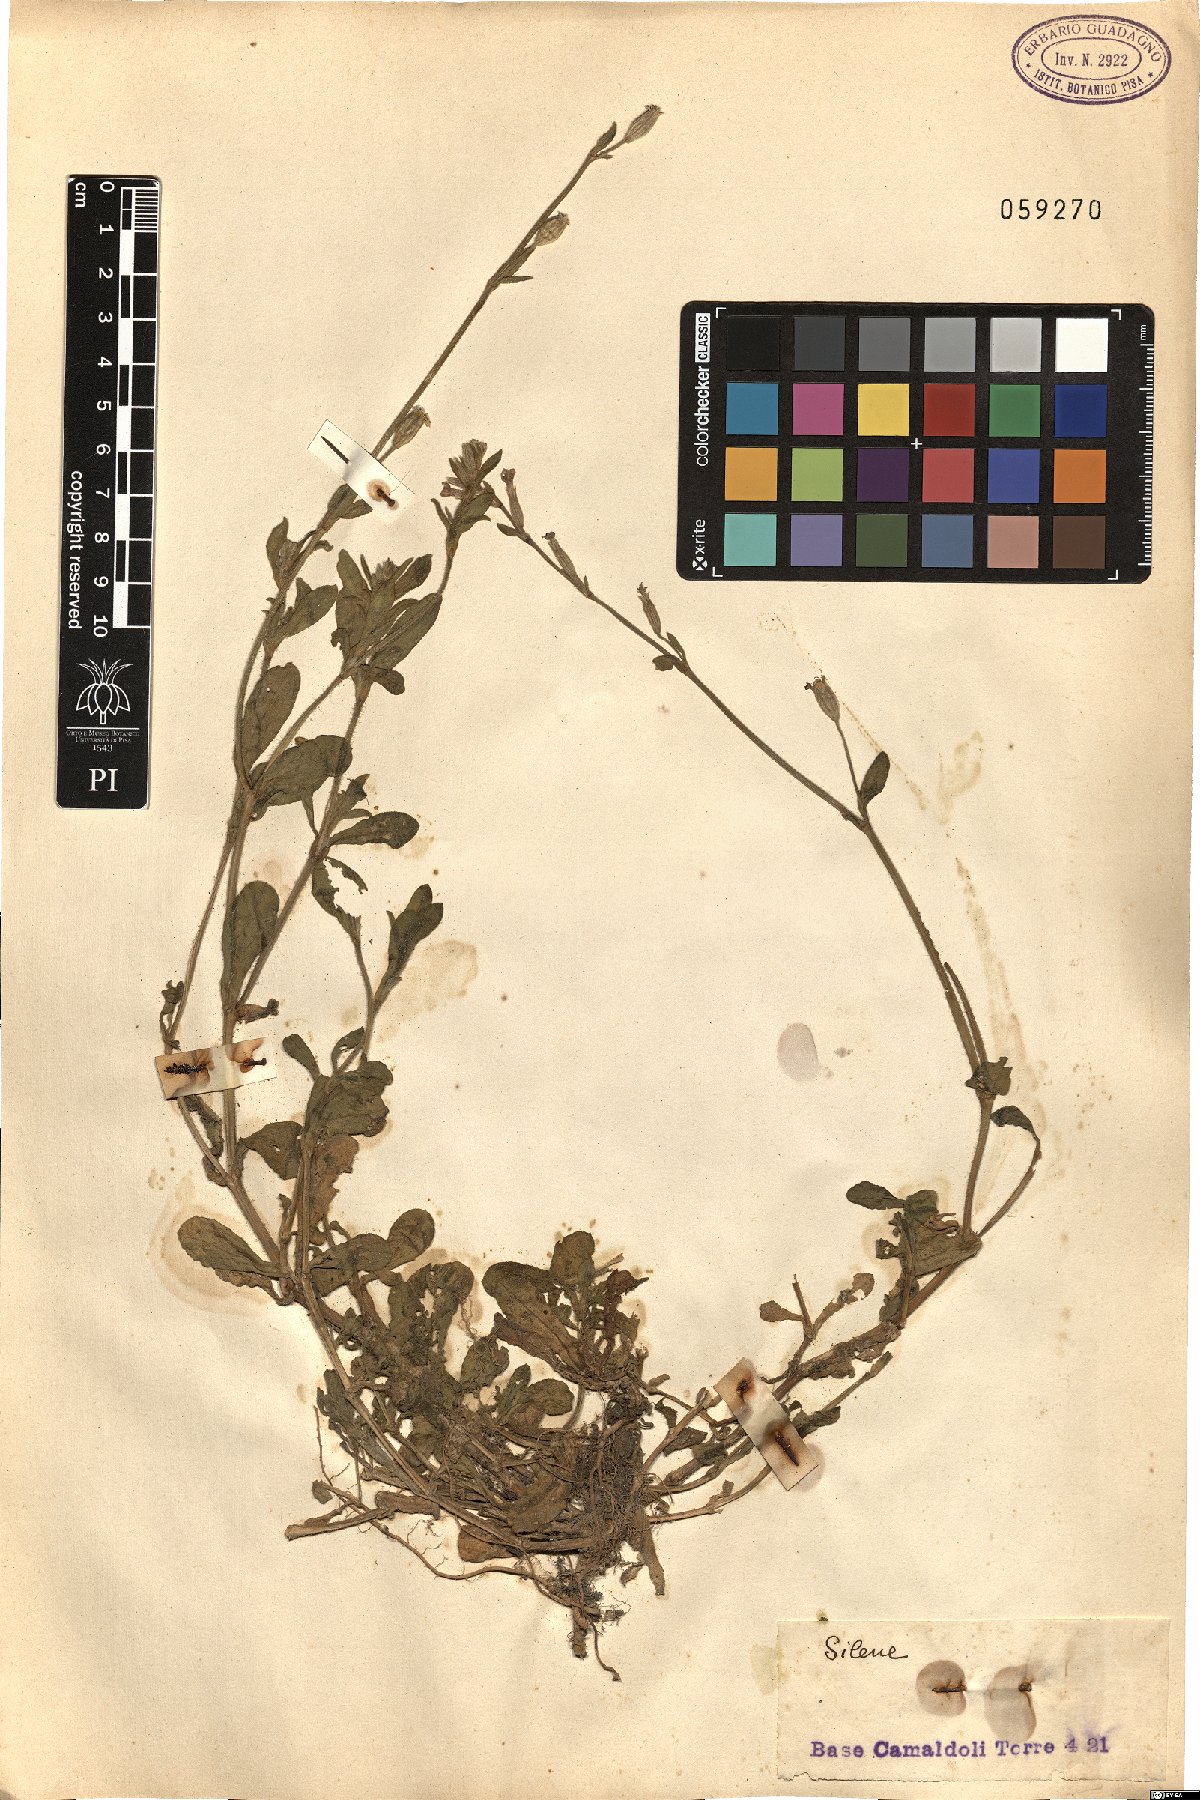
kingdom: Plantae
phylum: Tracheophyta
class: Magnoliopsida
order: Caryophyllales
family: Caryophyllaceae
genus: Silene
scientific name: Silene
